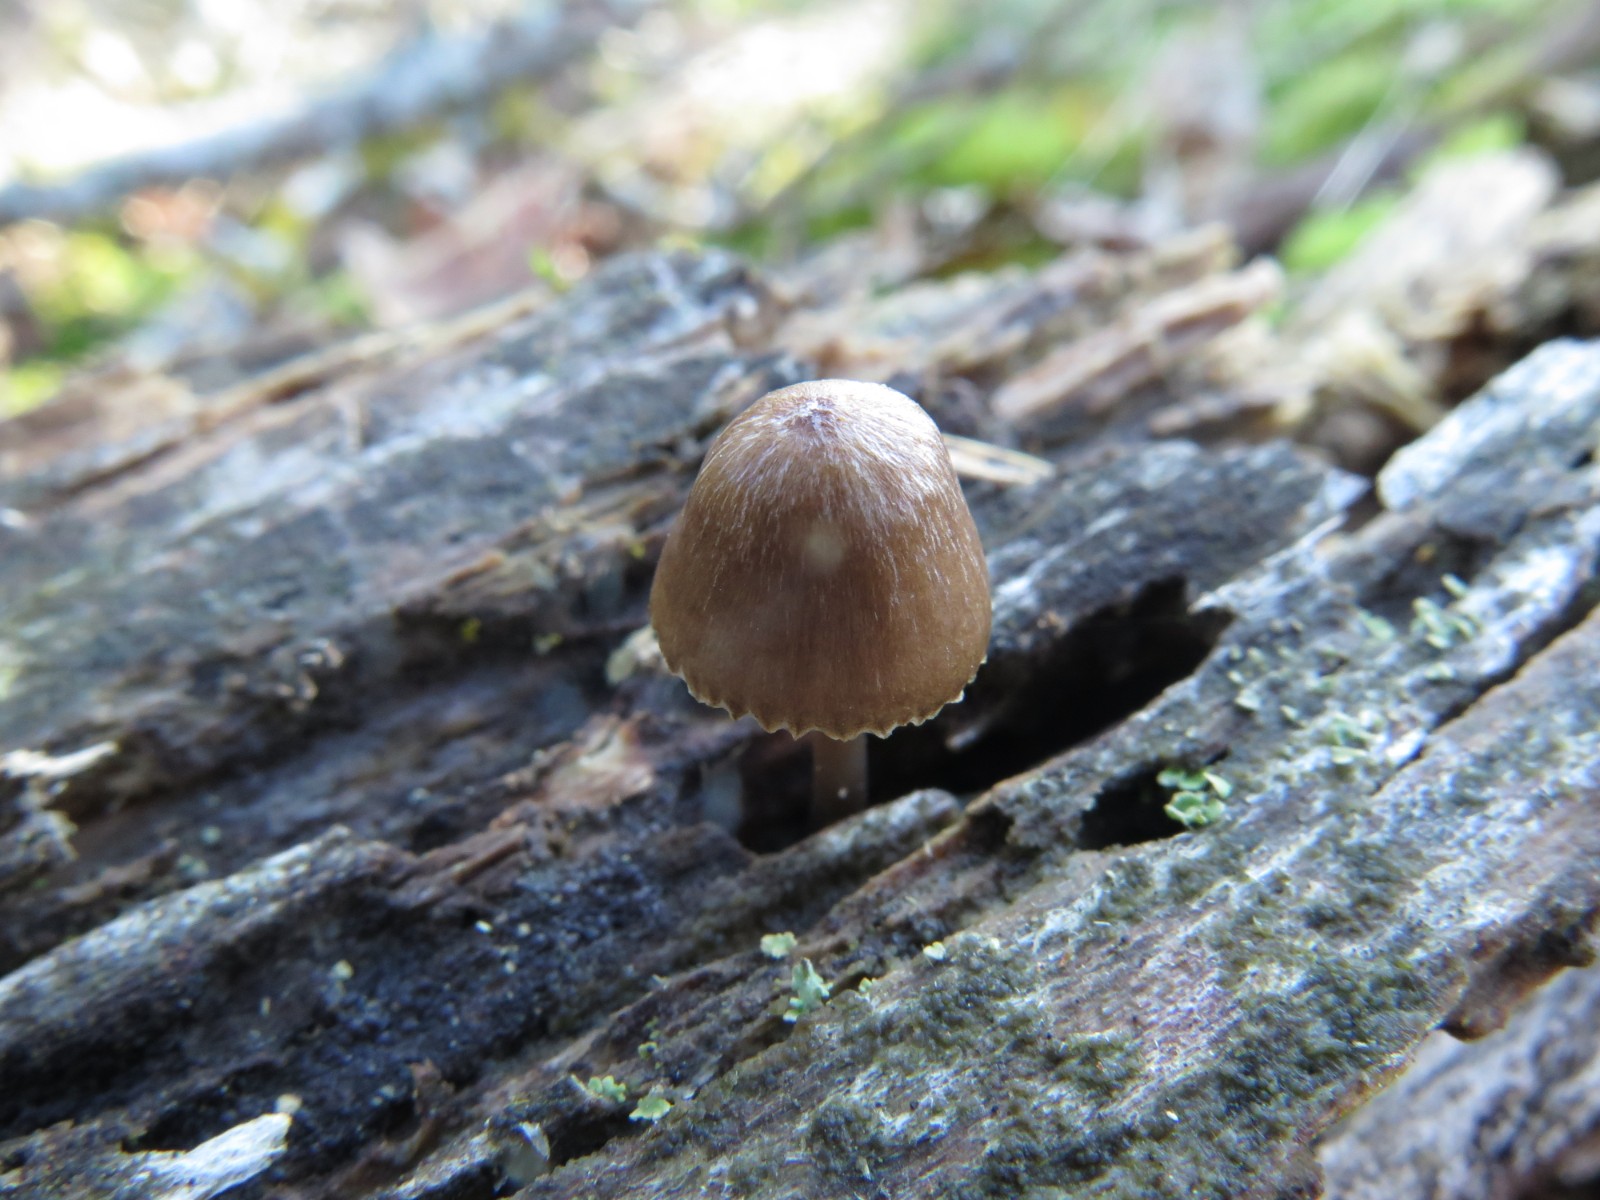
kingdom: Fungi
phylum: Basidiomycota
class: Agaricomycetes
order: Agaricales
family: Mycenaceae
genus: Mycena
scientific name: Mycena stipata
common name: stinkende huesvamp
